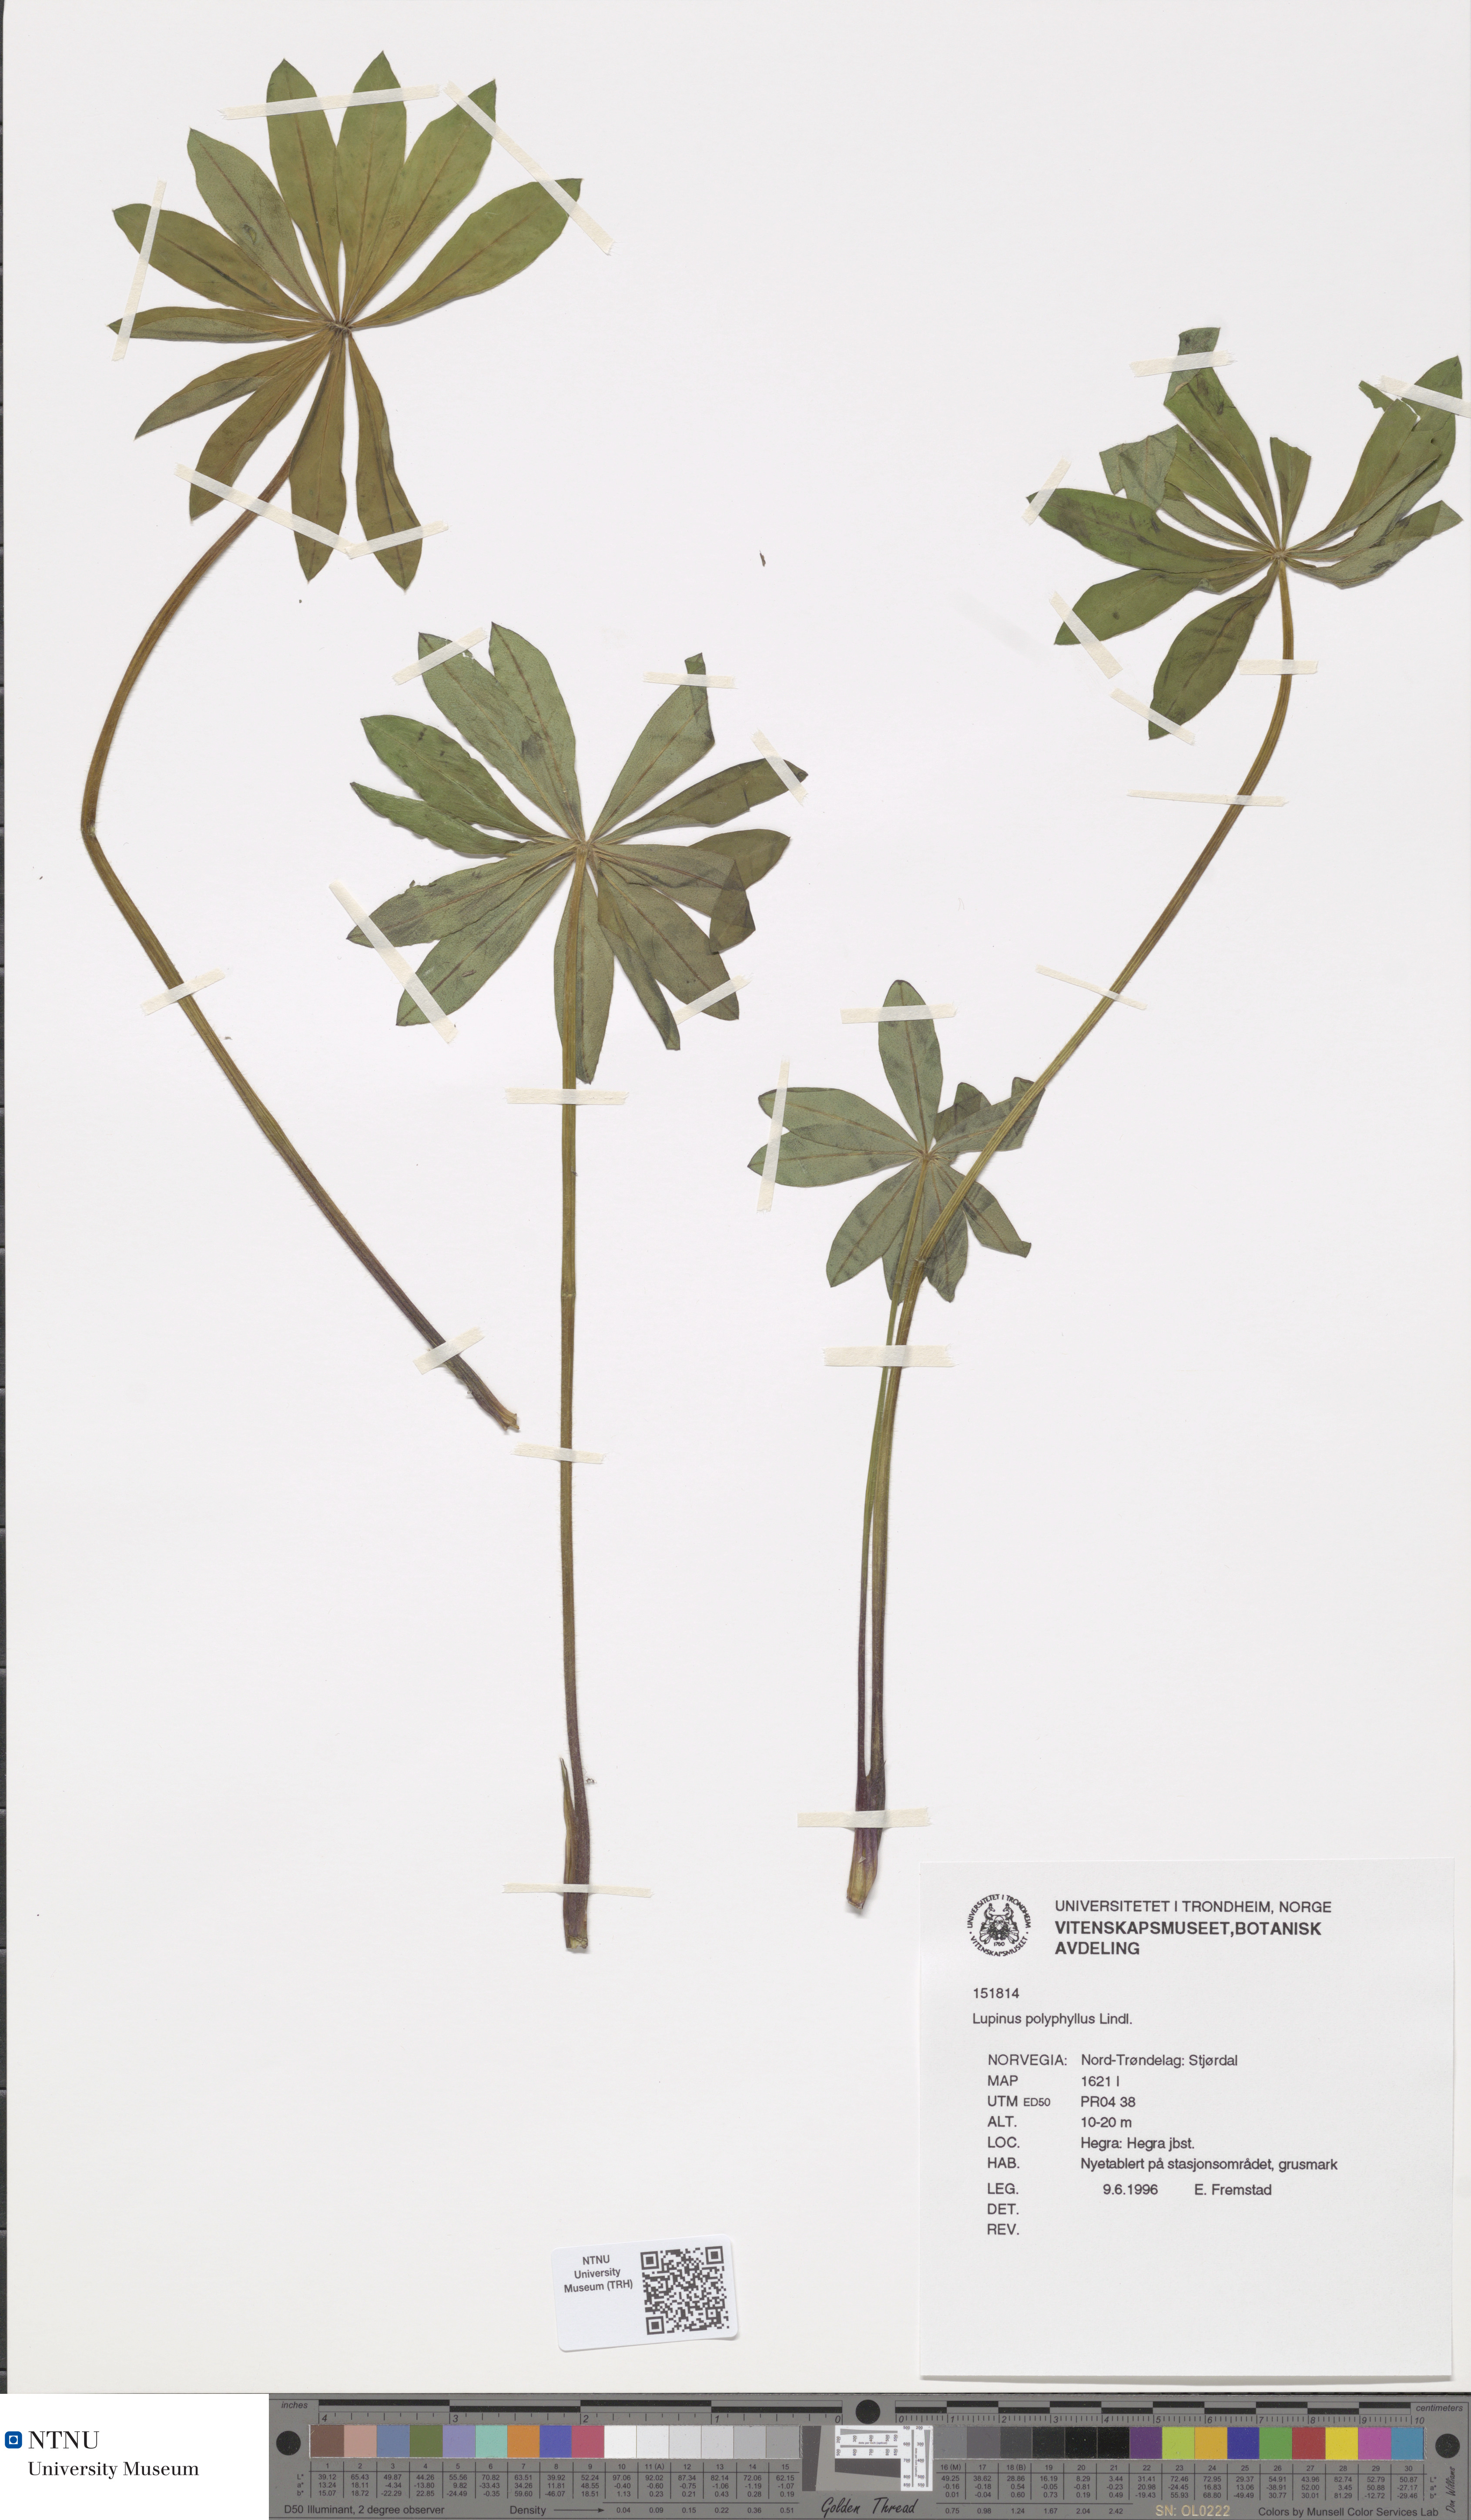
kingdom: Plantae
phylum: Tracheophyta
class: Magnoliopsida
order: Fabales
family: Fabaceae
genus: Lupinus
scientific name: Lupinus polyphyllus
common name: Garden lupin
